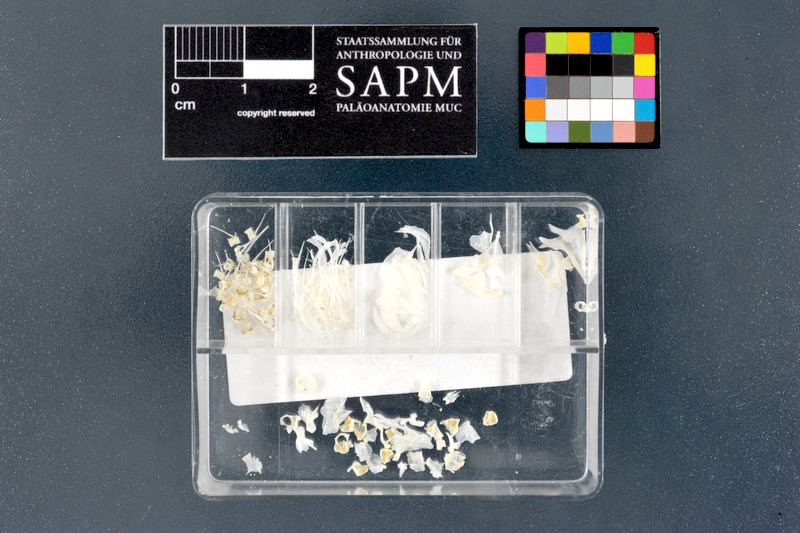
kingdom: Animalia
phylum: Chordata
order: Cypriniformes
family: Cyprinidae
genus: Romanogobio
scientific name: Romanogobio tenuicorpus
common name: Amur white gudgeon
